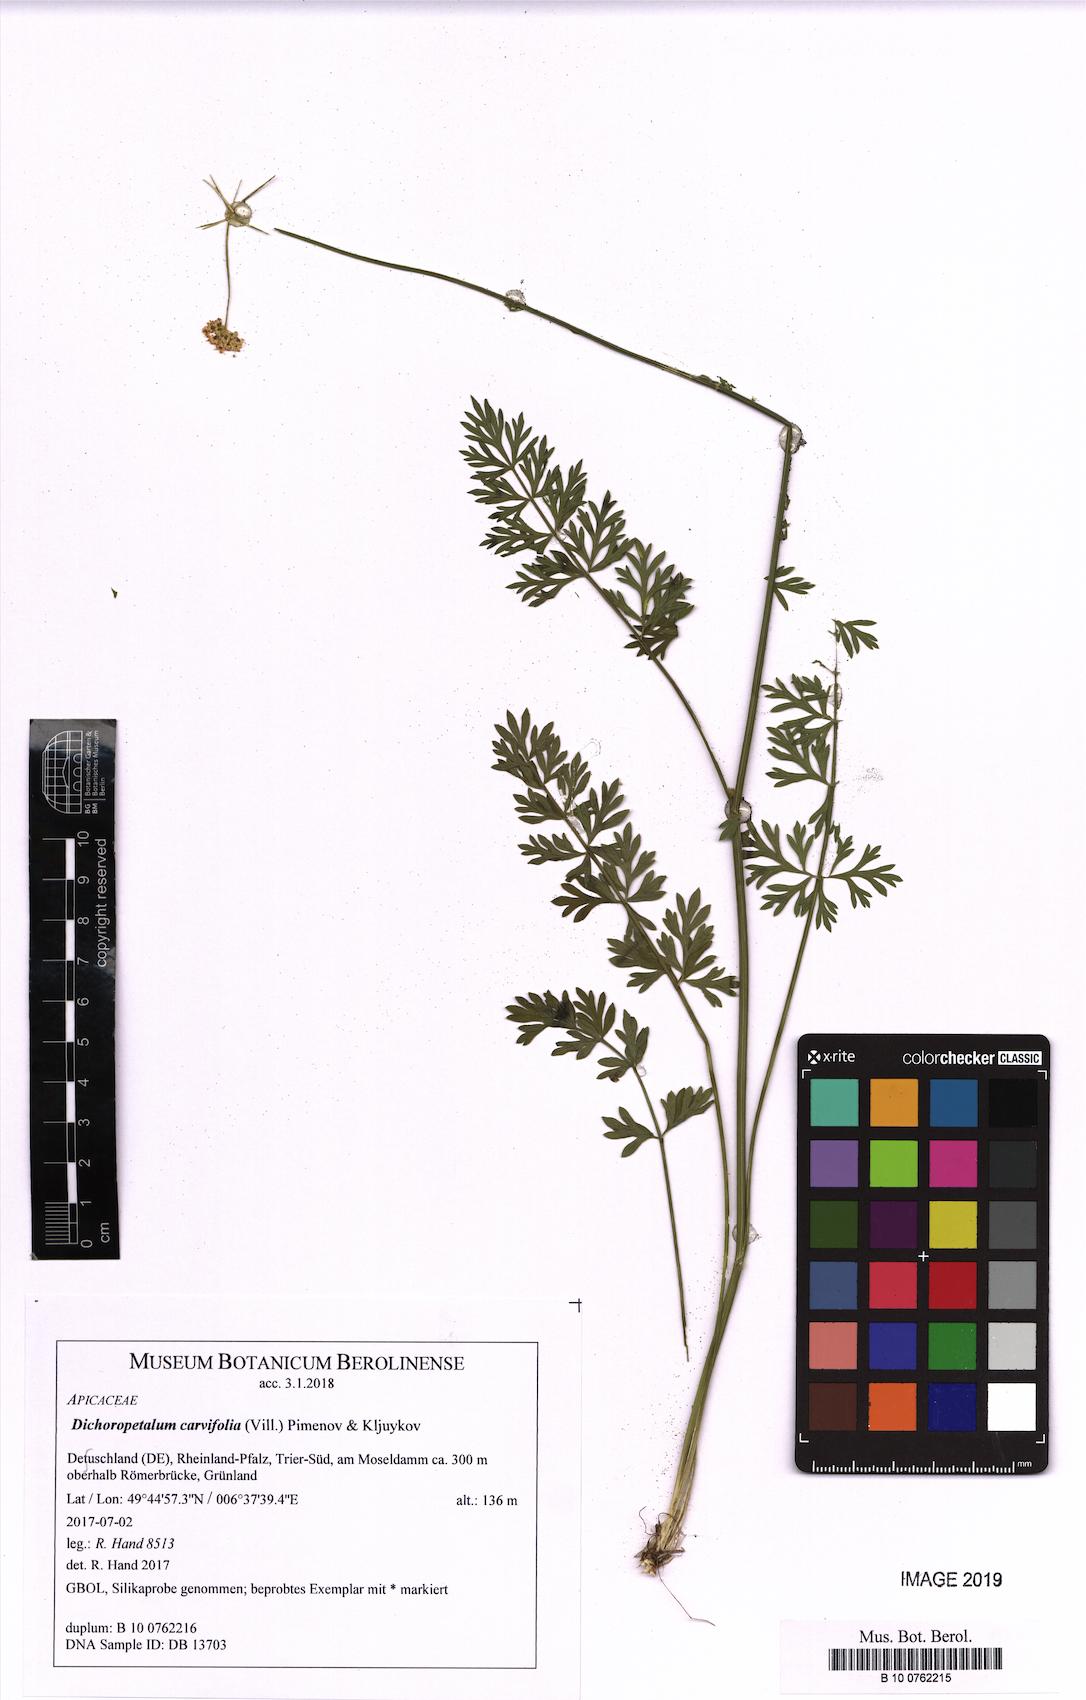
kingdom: Plantae
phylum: Tracheophyta
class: Magnoliopsida
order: Apiales
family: Apiaceae
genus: Dichoropetalum
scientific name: Dichoropetalum carvifolia
